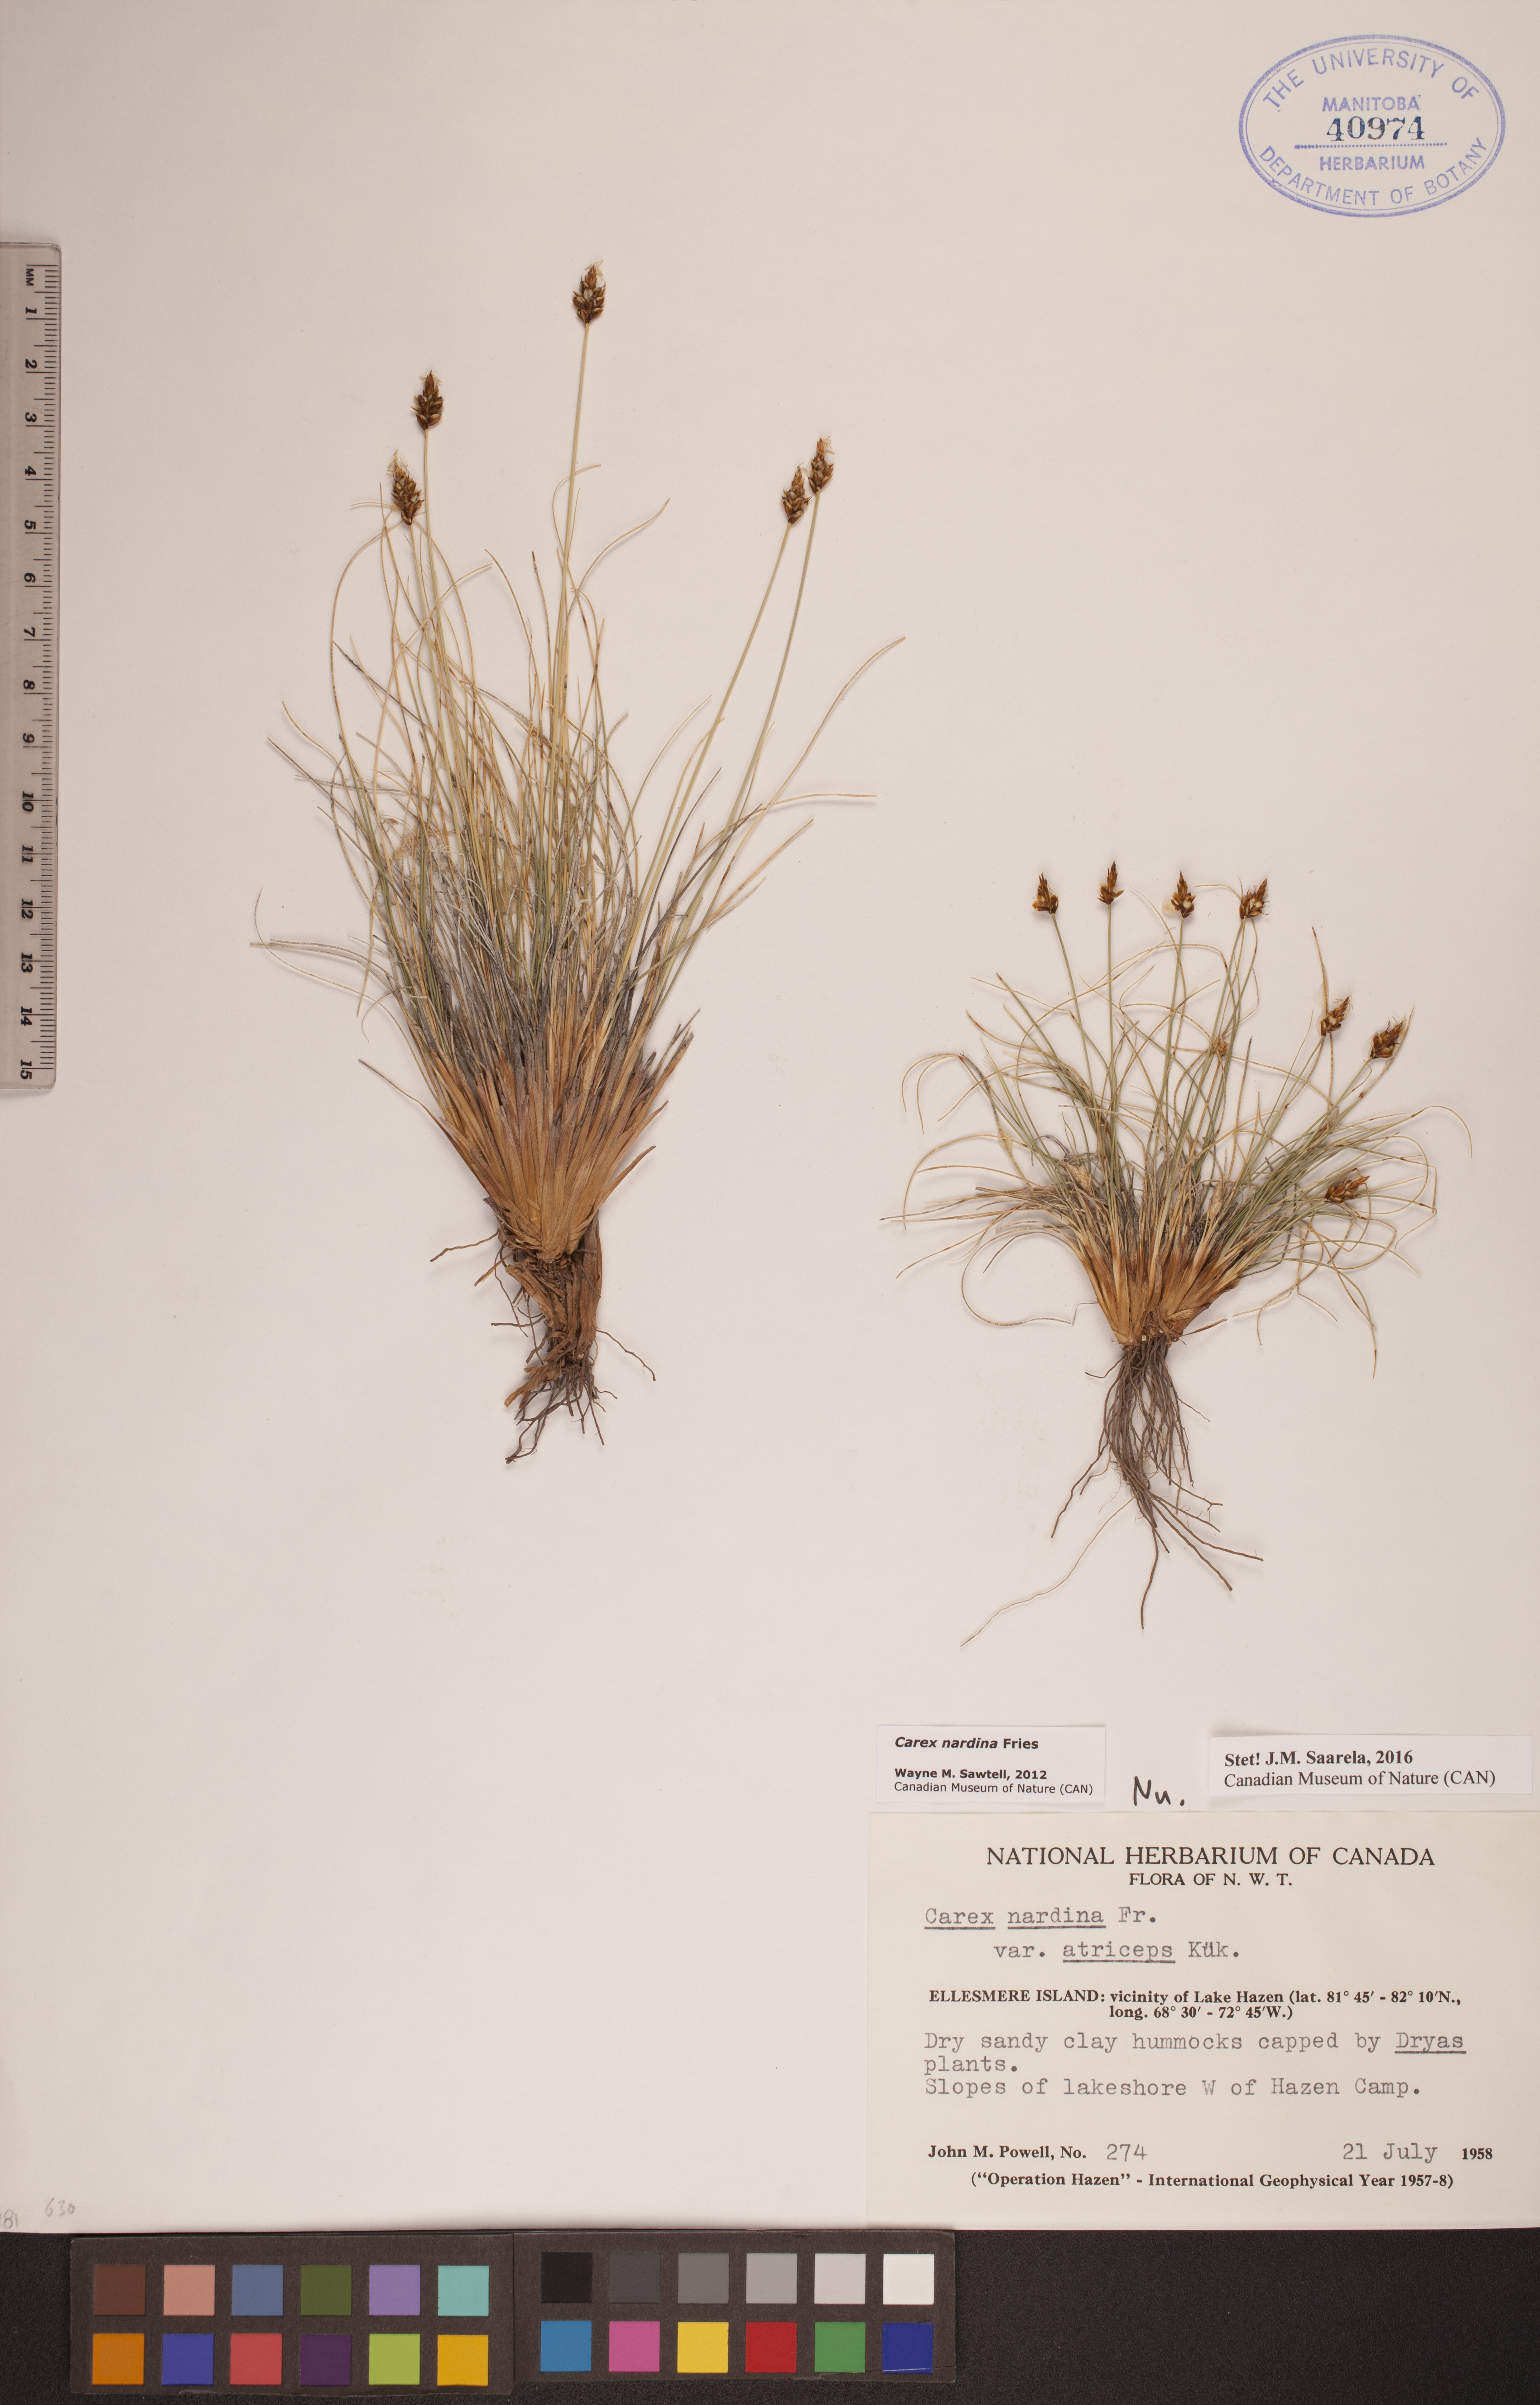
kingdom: Plantae
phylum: Tracheophyta
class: Liliopsida
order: Poales
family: Cyperaceae
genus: Carex
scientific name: Carex nardina
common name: Nard sedge
